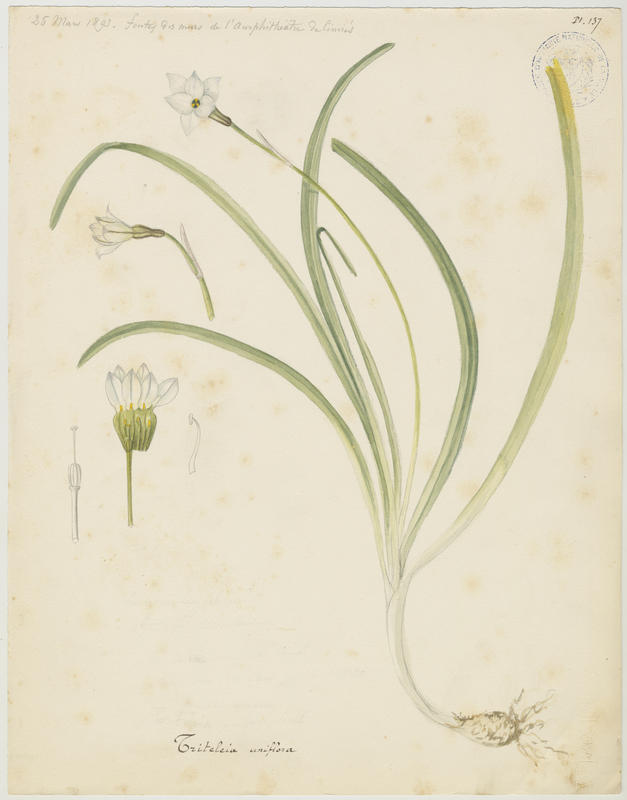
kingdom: Plantae
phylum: Tracheophyta
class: Liliopsida
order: Asparagales
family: Amaryllidaceae
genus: Ipheion
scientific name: Ipheion uniflorum
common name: Spring starflower
